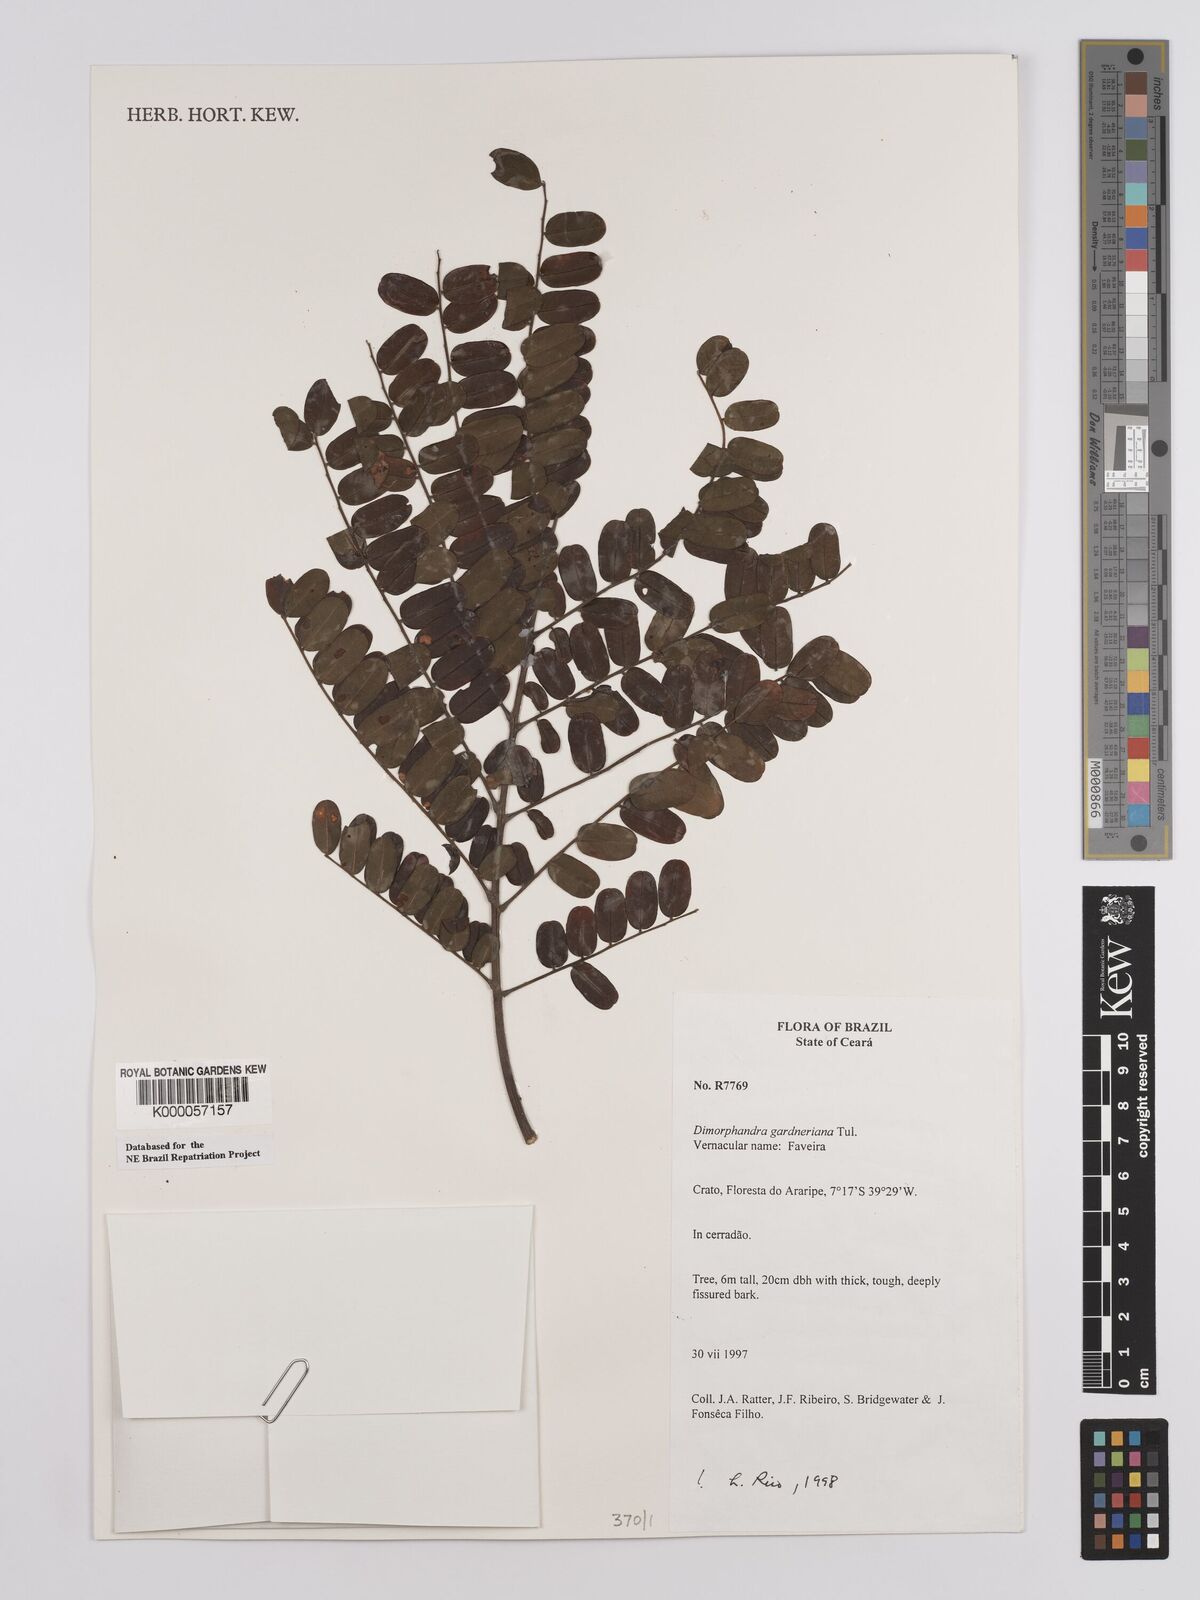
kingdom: Plantae
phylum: Tracheophyta
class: Magnoliopsida
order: Fabales
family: Fabaceae
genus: Dimorphandra
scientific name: Dimorphandra gardneriana
